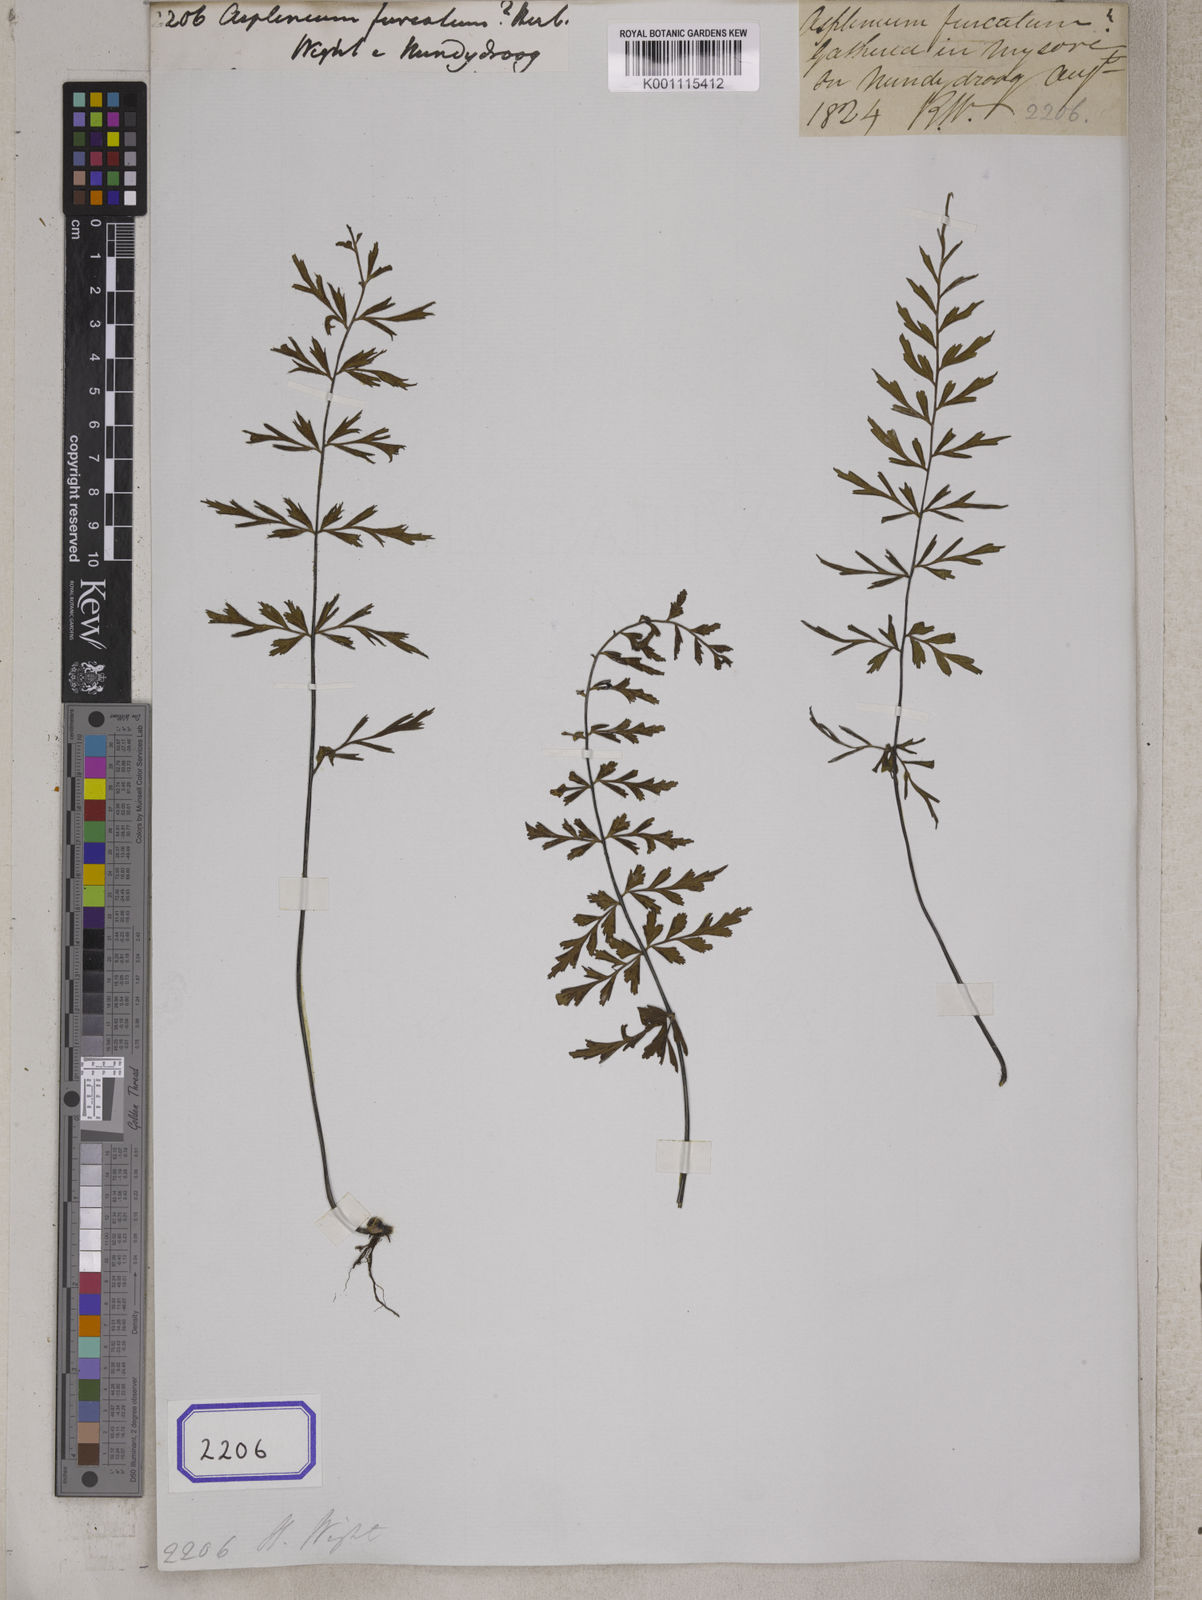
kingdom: Plantae
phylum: Tracheophyta
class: Polypodiopsida
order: Polypodiales
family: Aspleniaceae
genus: Asplenium
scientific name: Asplenium aethiopicum
